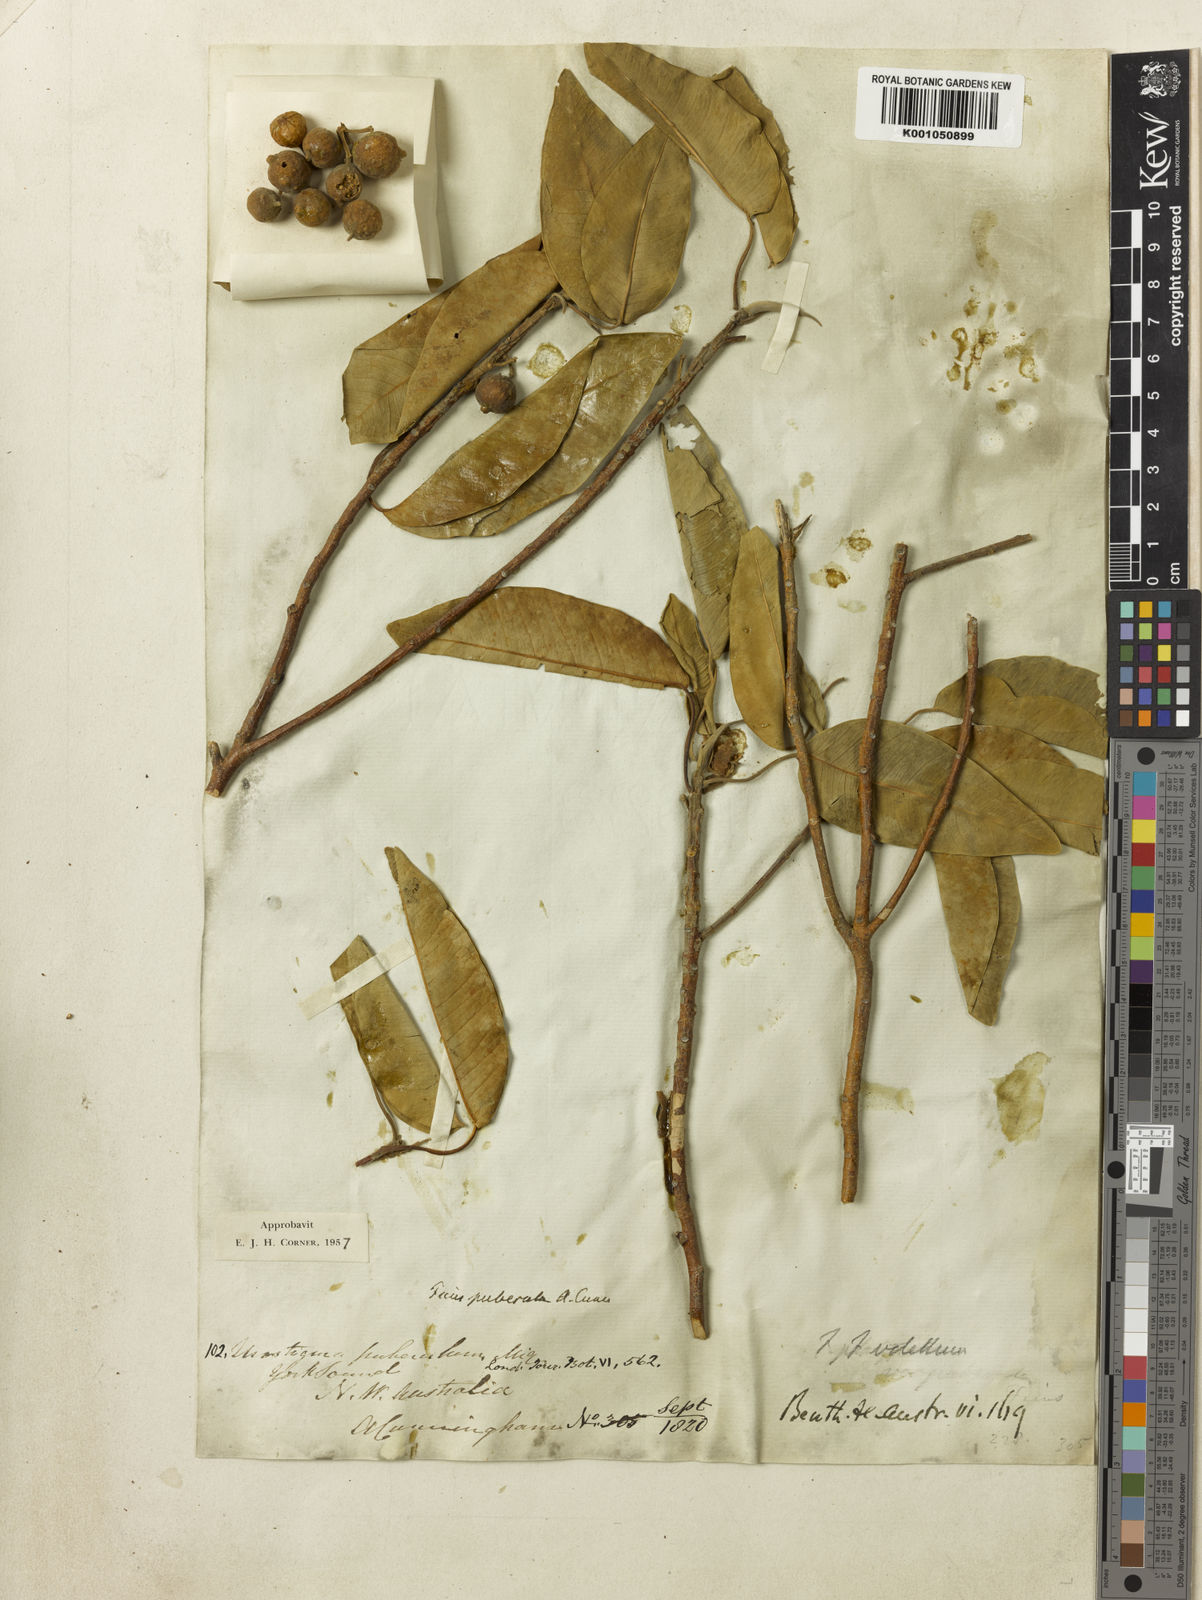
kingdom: Plantae
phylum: Tracheophyta
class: Magnoliopsida
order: Rosales
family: Moraceae
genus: Ficus
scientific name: Ficus subpuberula
